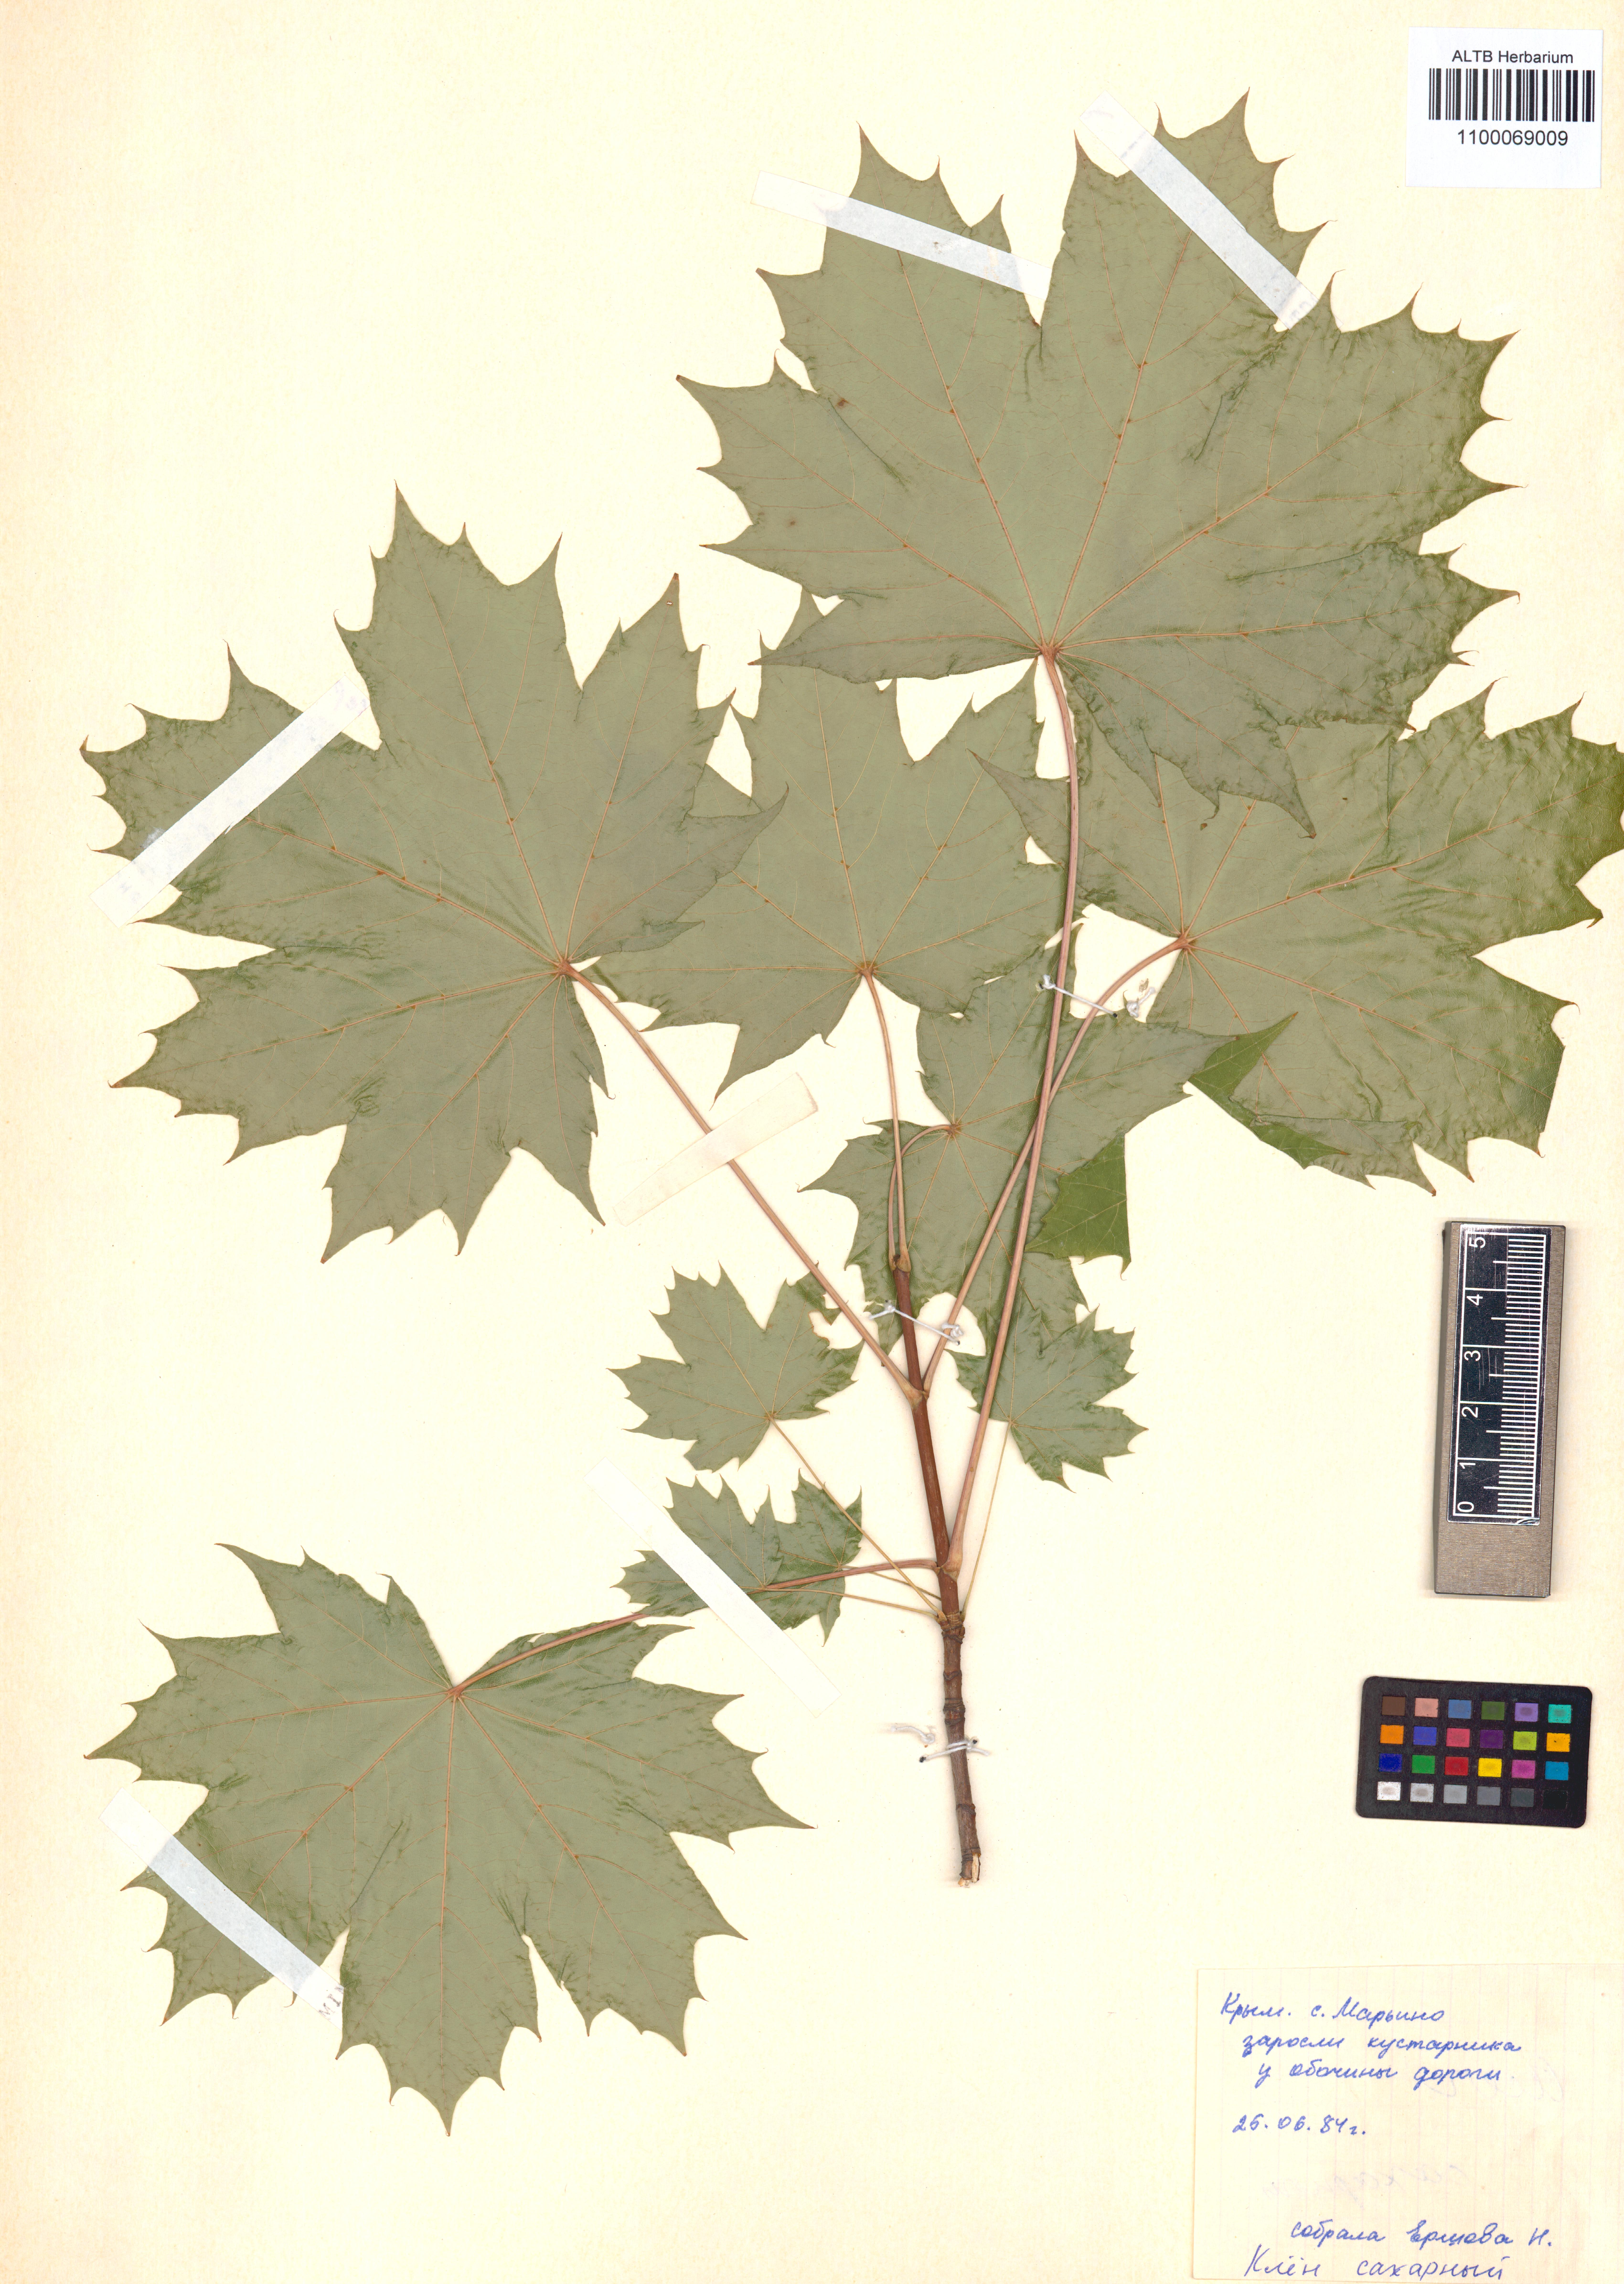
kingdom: Plantae
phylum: Tracheophyta
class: Magnoliopsida
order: Sapindales
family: Sapindaceae
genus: Acer
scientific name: Acer saccharinum
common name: Silver maple
